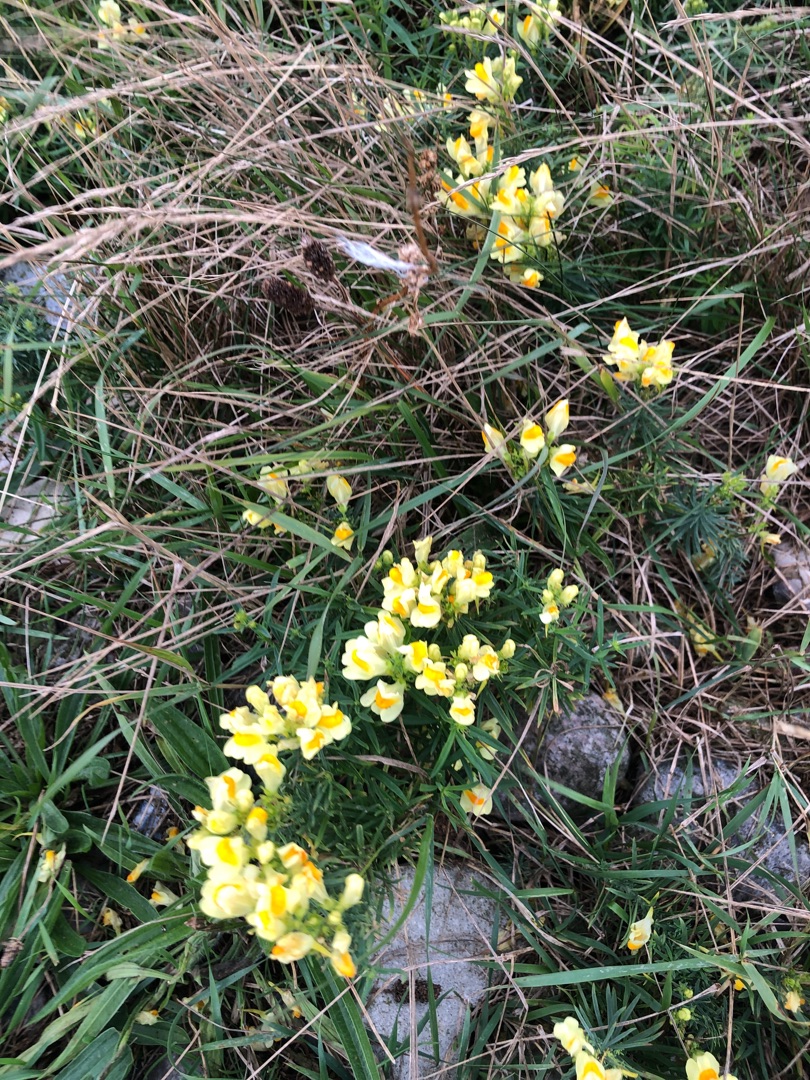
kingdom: Plantae
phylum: Tracheophyta
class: Magnoliopsida
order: Lamiales
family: Plantaginaceae
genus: Linaria
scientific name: Linaria vulgaris
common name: Almindelig torskemund
